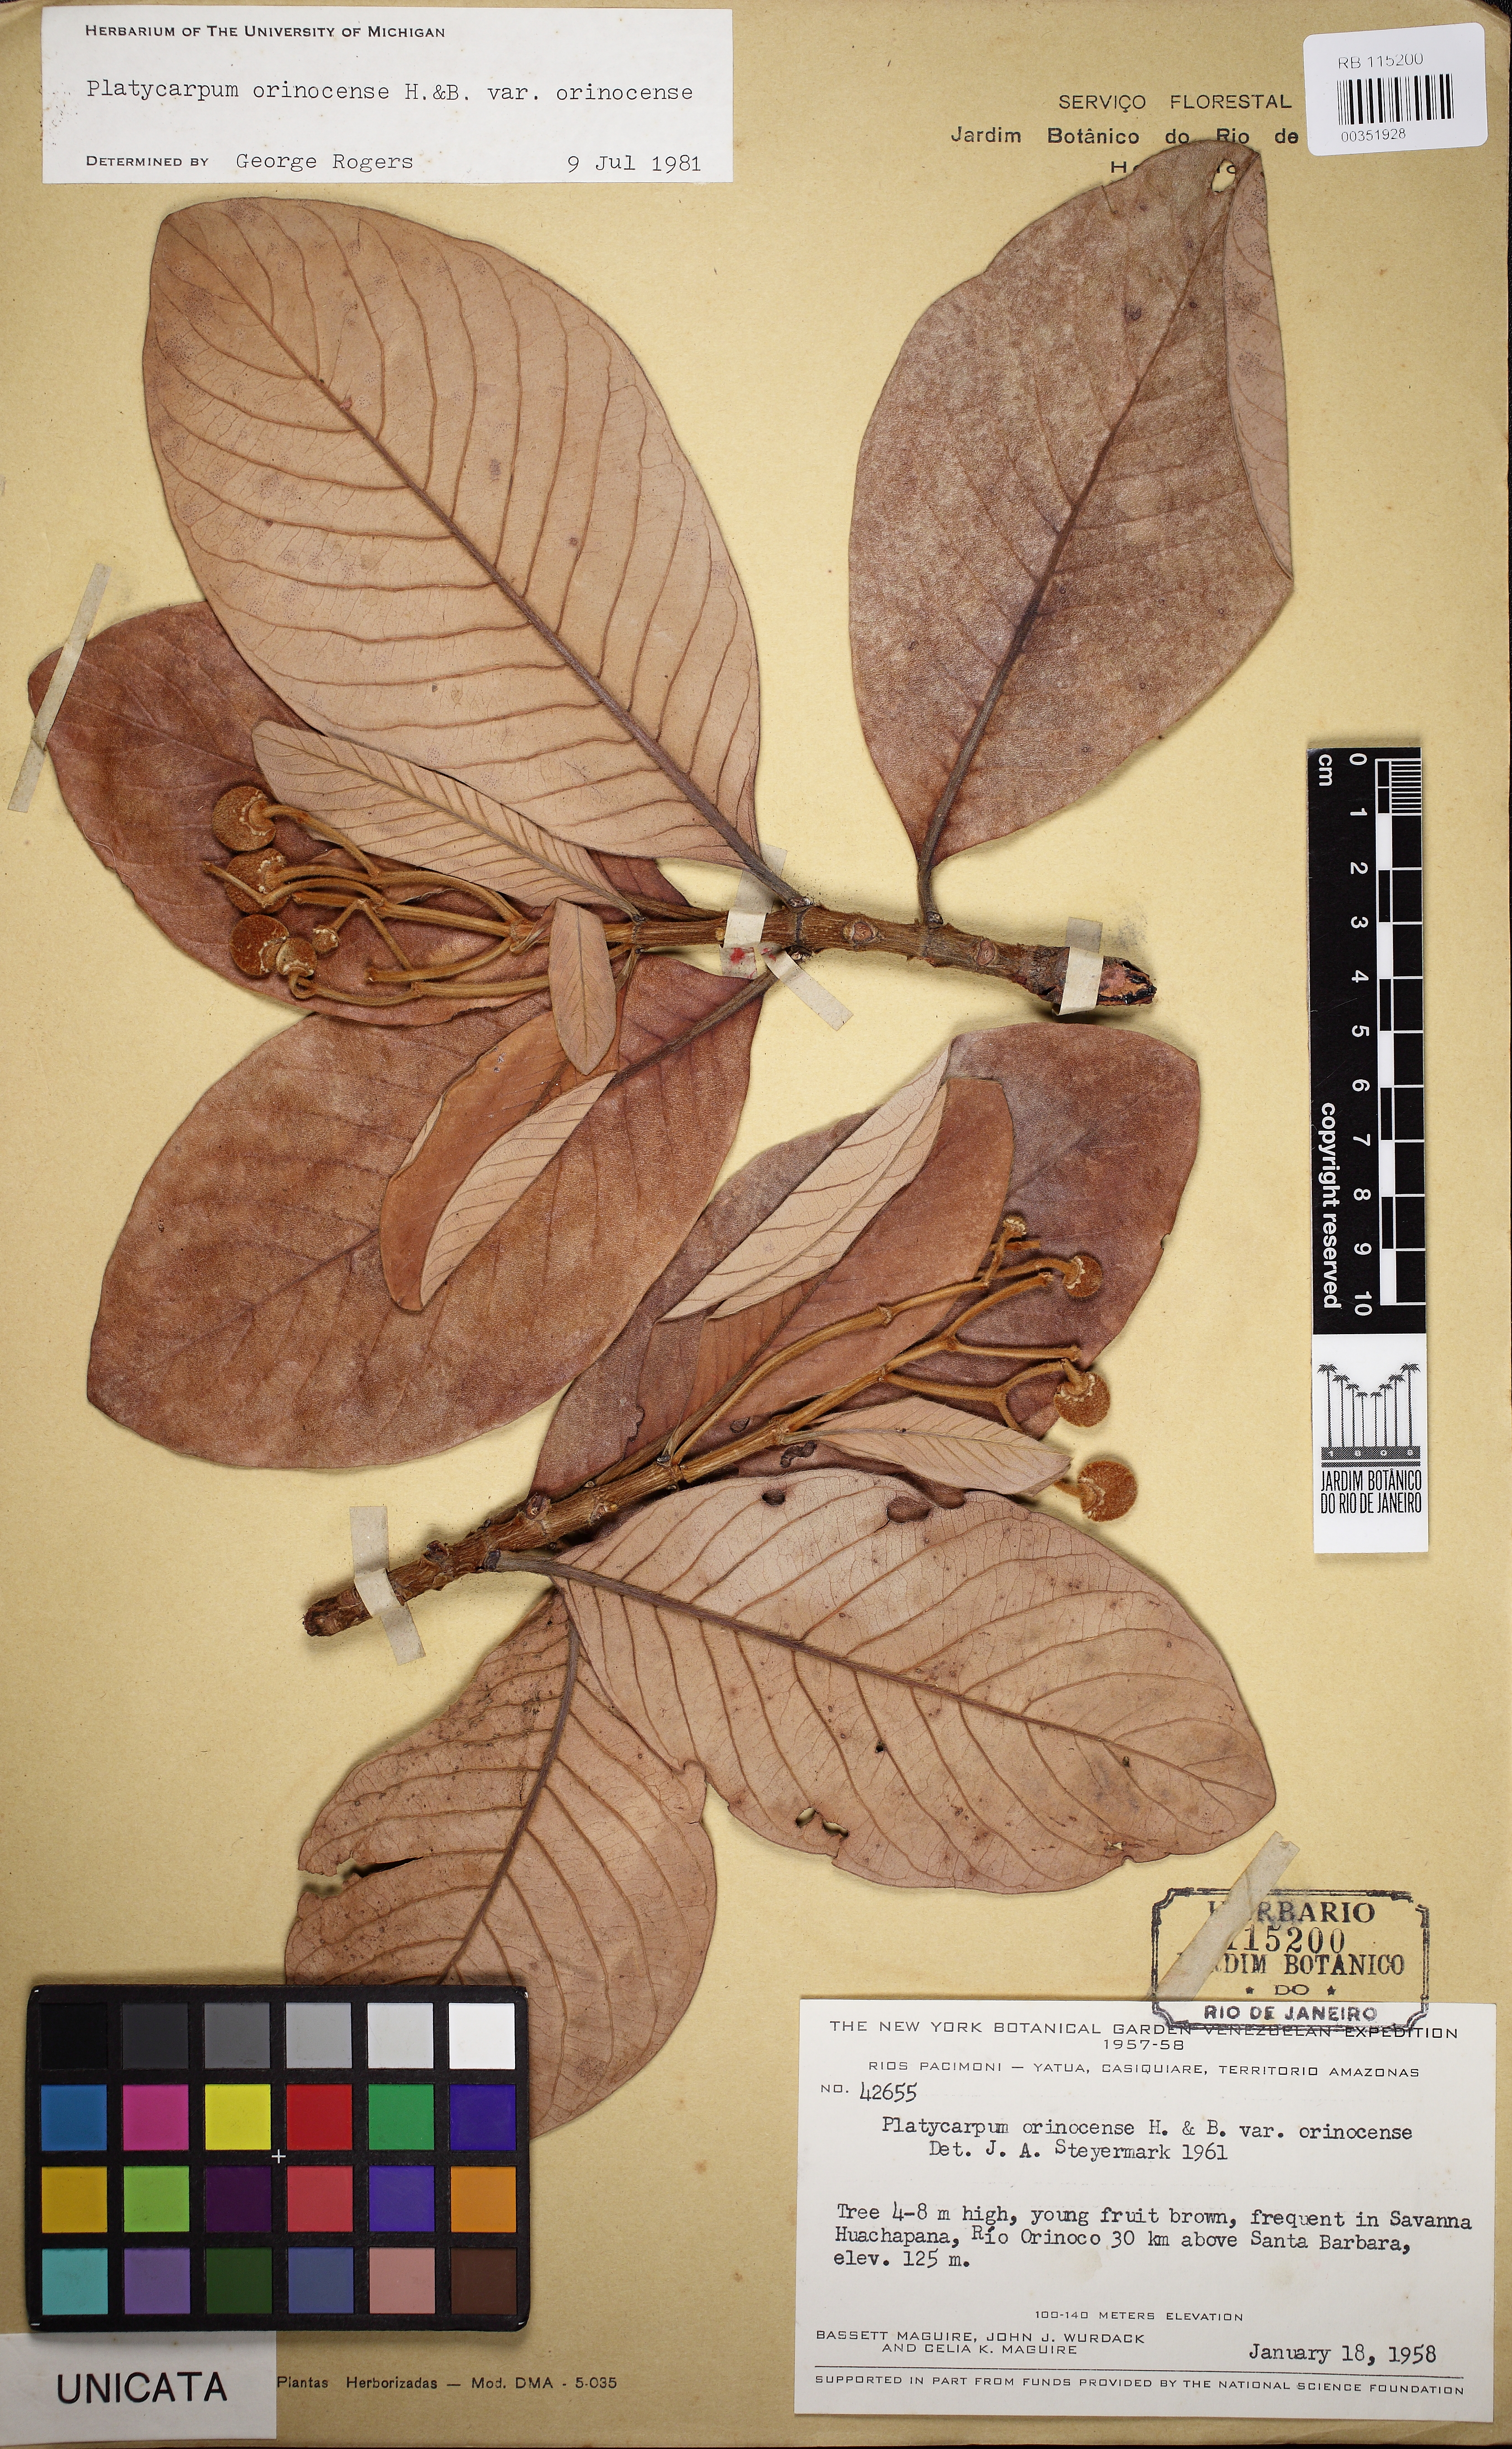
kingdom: Plantae
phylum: Tracheophyta
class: Magnoliopsida
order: Gentianales
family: Rubiaceae
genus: Platycarpum
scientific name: Platycarpum orinocense
